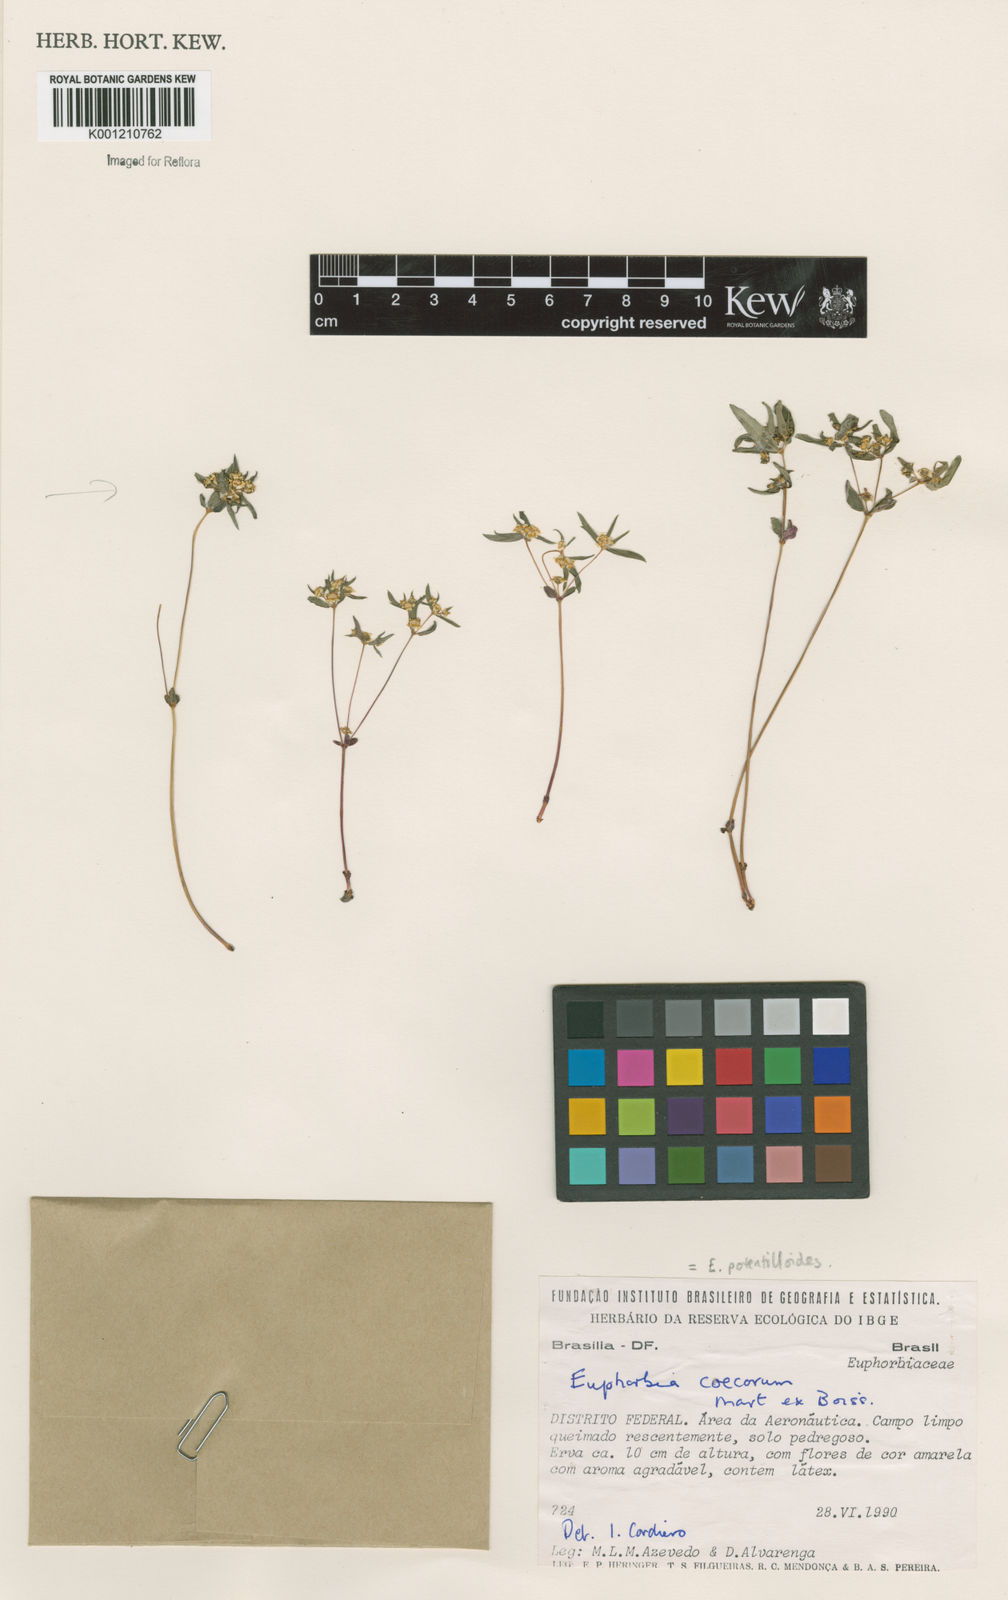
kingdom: Plantae
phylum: Tracheophyta
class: Magnoliopsida
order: Malpighiales
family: Euphorbiaceae
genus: Euphorbia
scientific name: Euphorbia potentilloides
